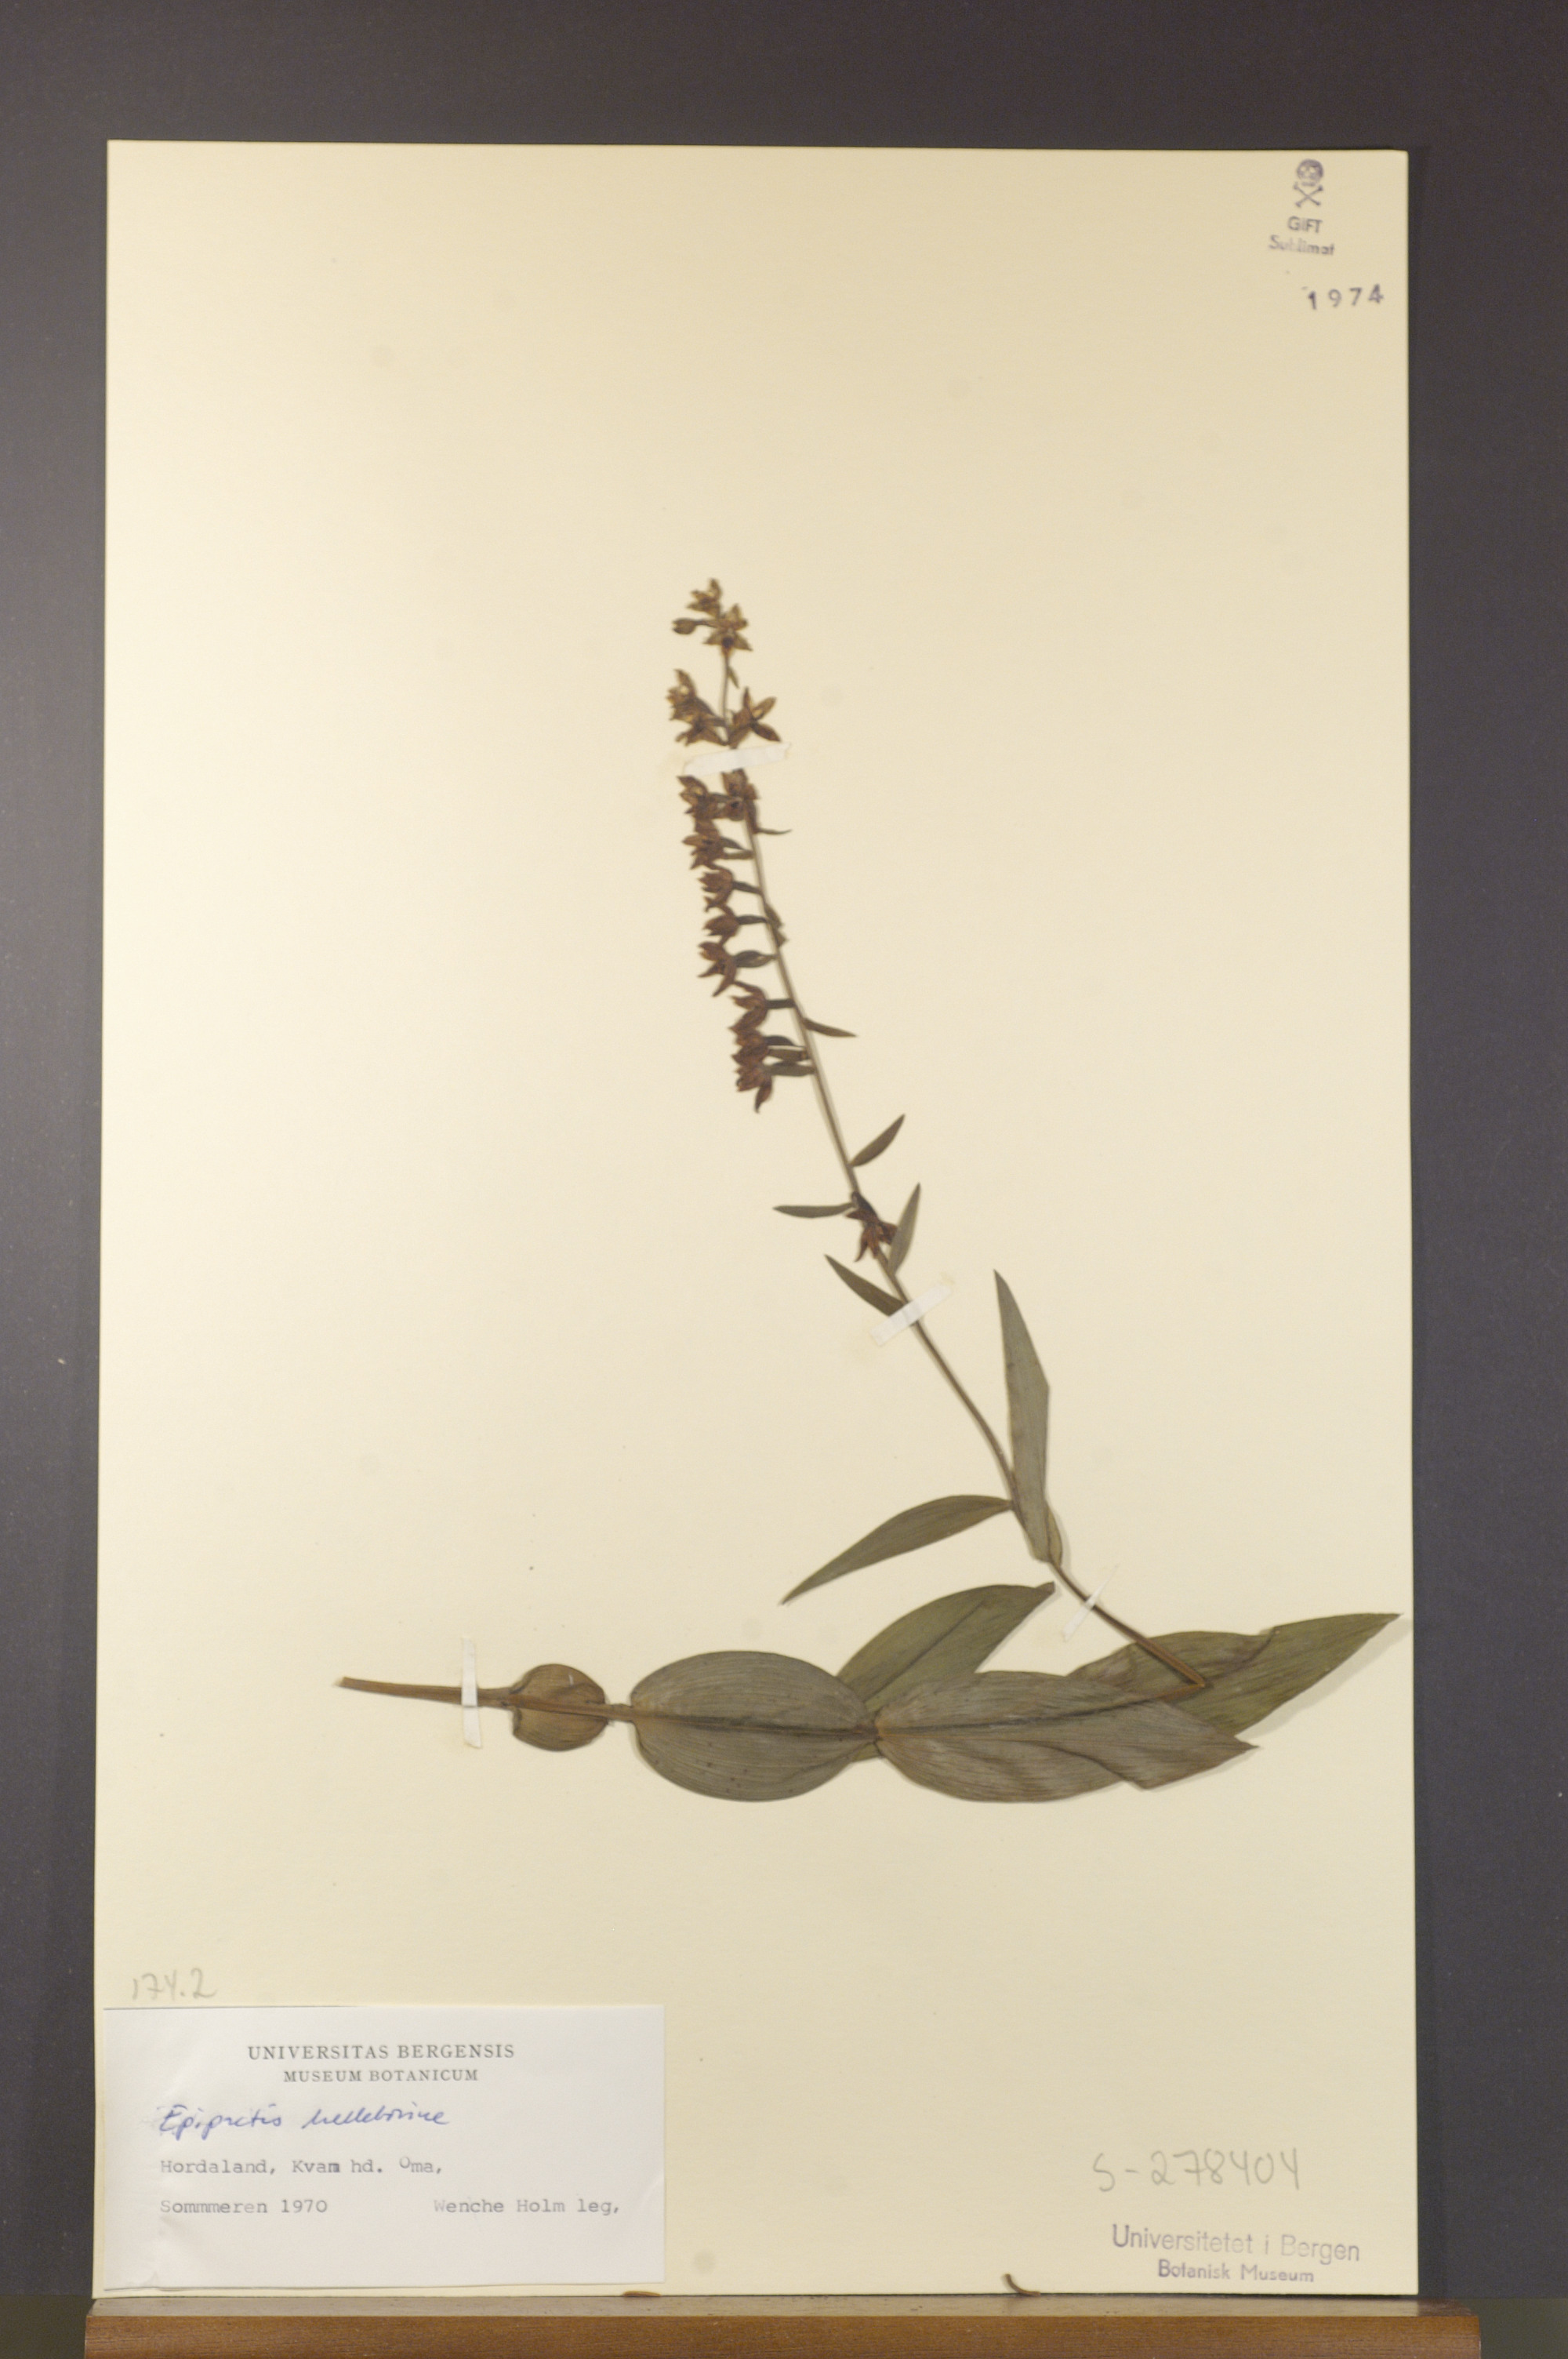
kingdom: Plantae
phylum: Tracheophyta
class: Liliopsida
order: Asparagales
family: Orchidaceae
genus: Epipactis
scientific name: Epipactis helleborine
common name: Broad-leaved helleborine
